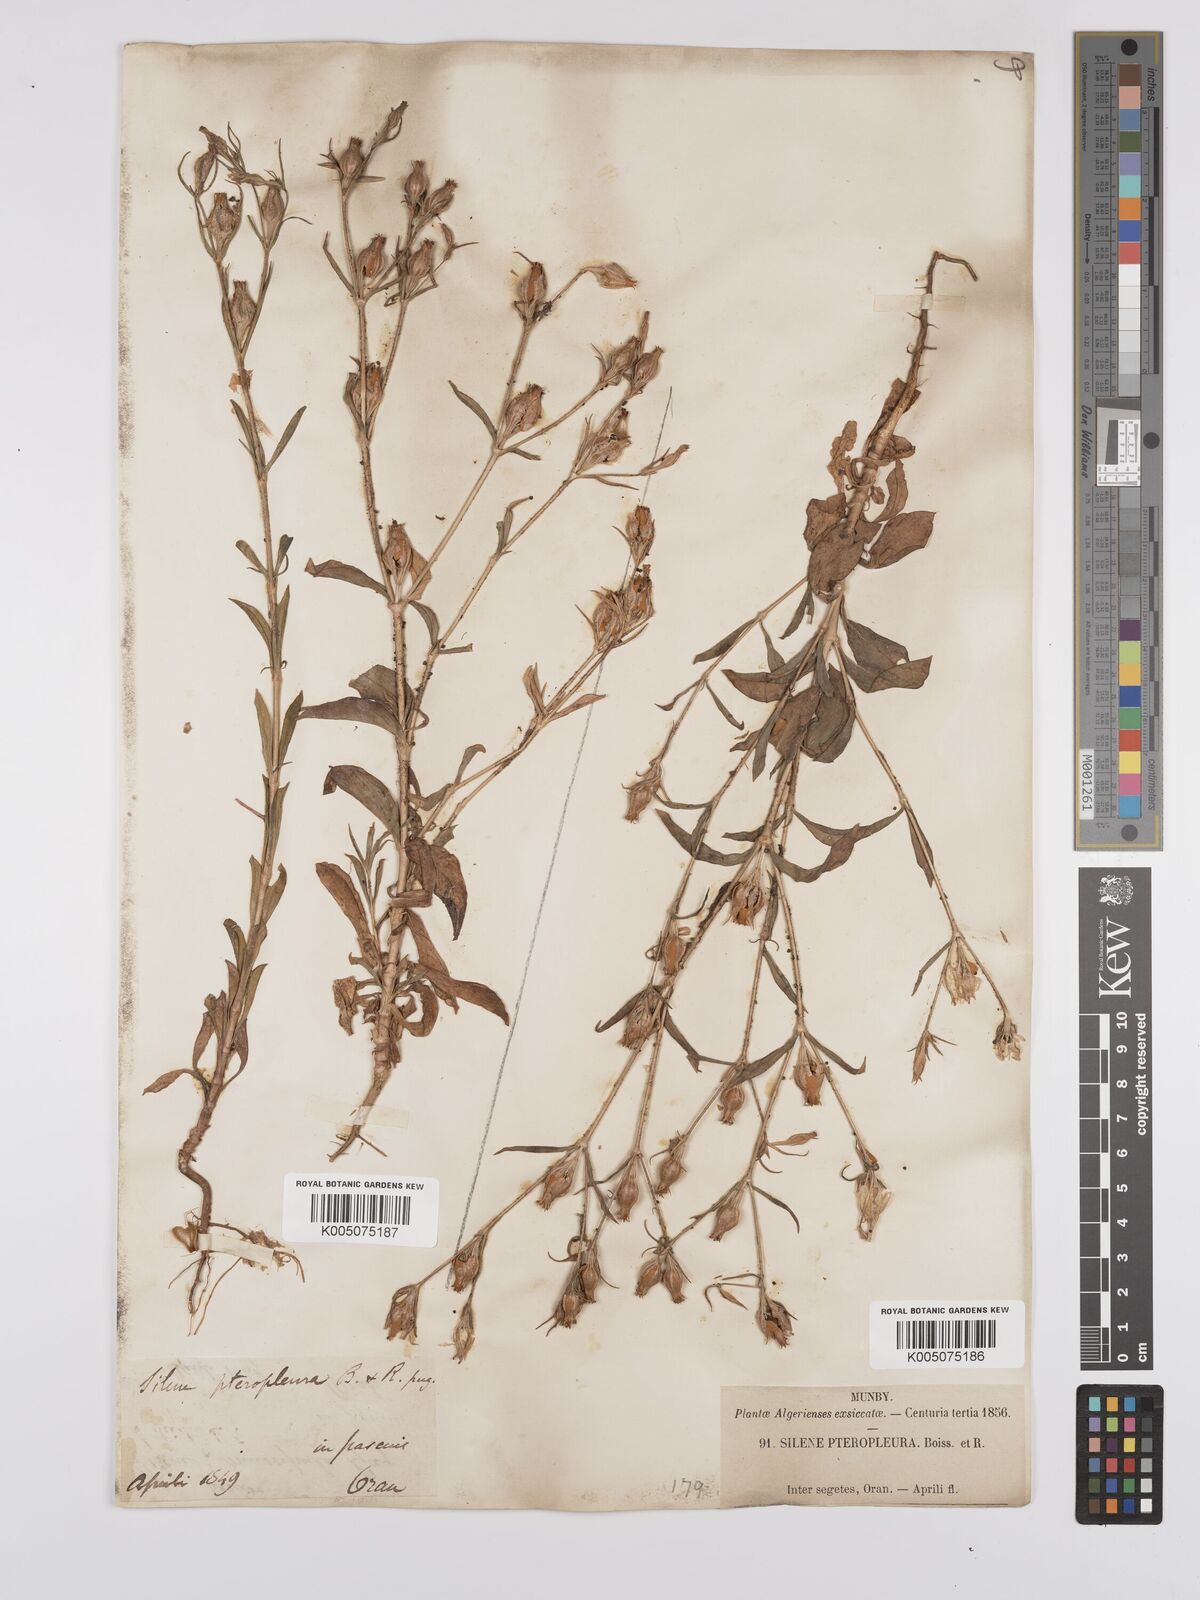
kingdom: Plantae
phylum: Tracheophyta
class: Magnoliopsida
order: Caryophyllales
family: Caryophyllaceae
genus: Silene
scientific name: Silene stricta
